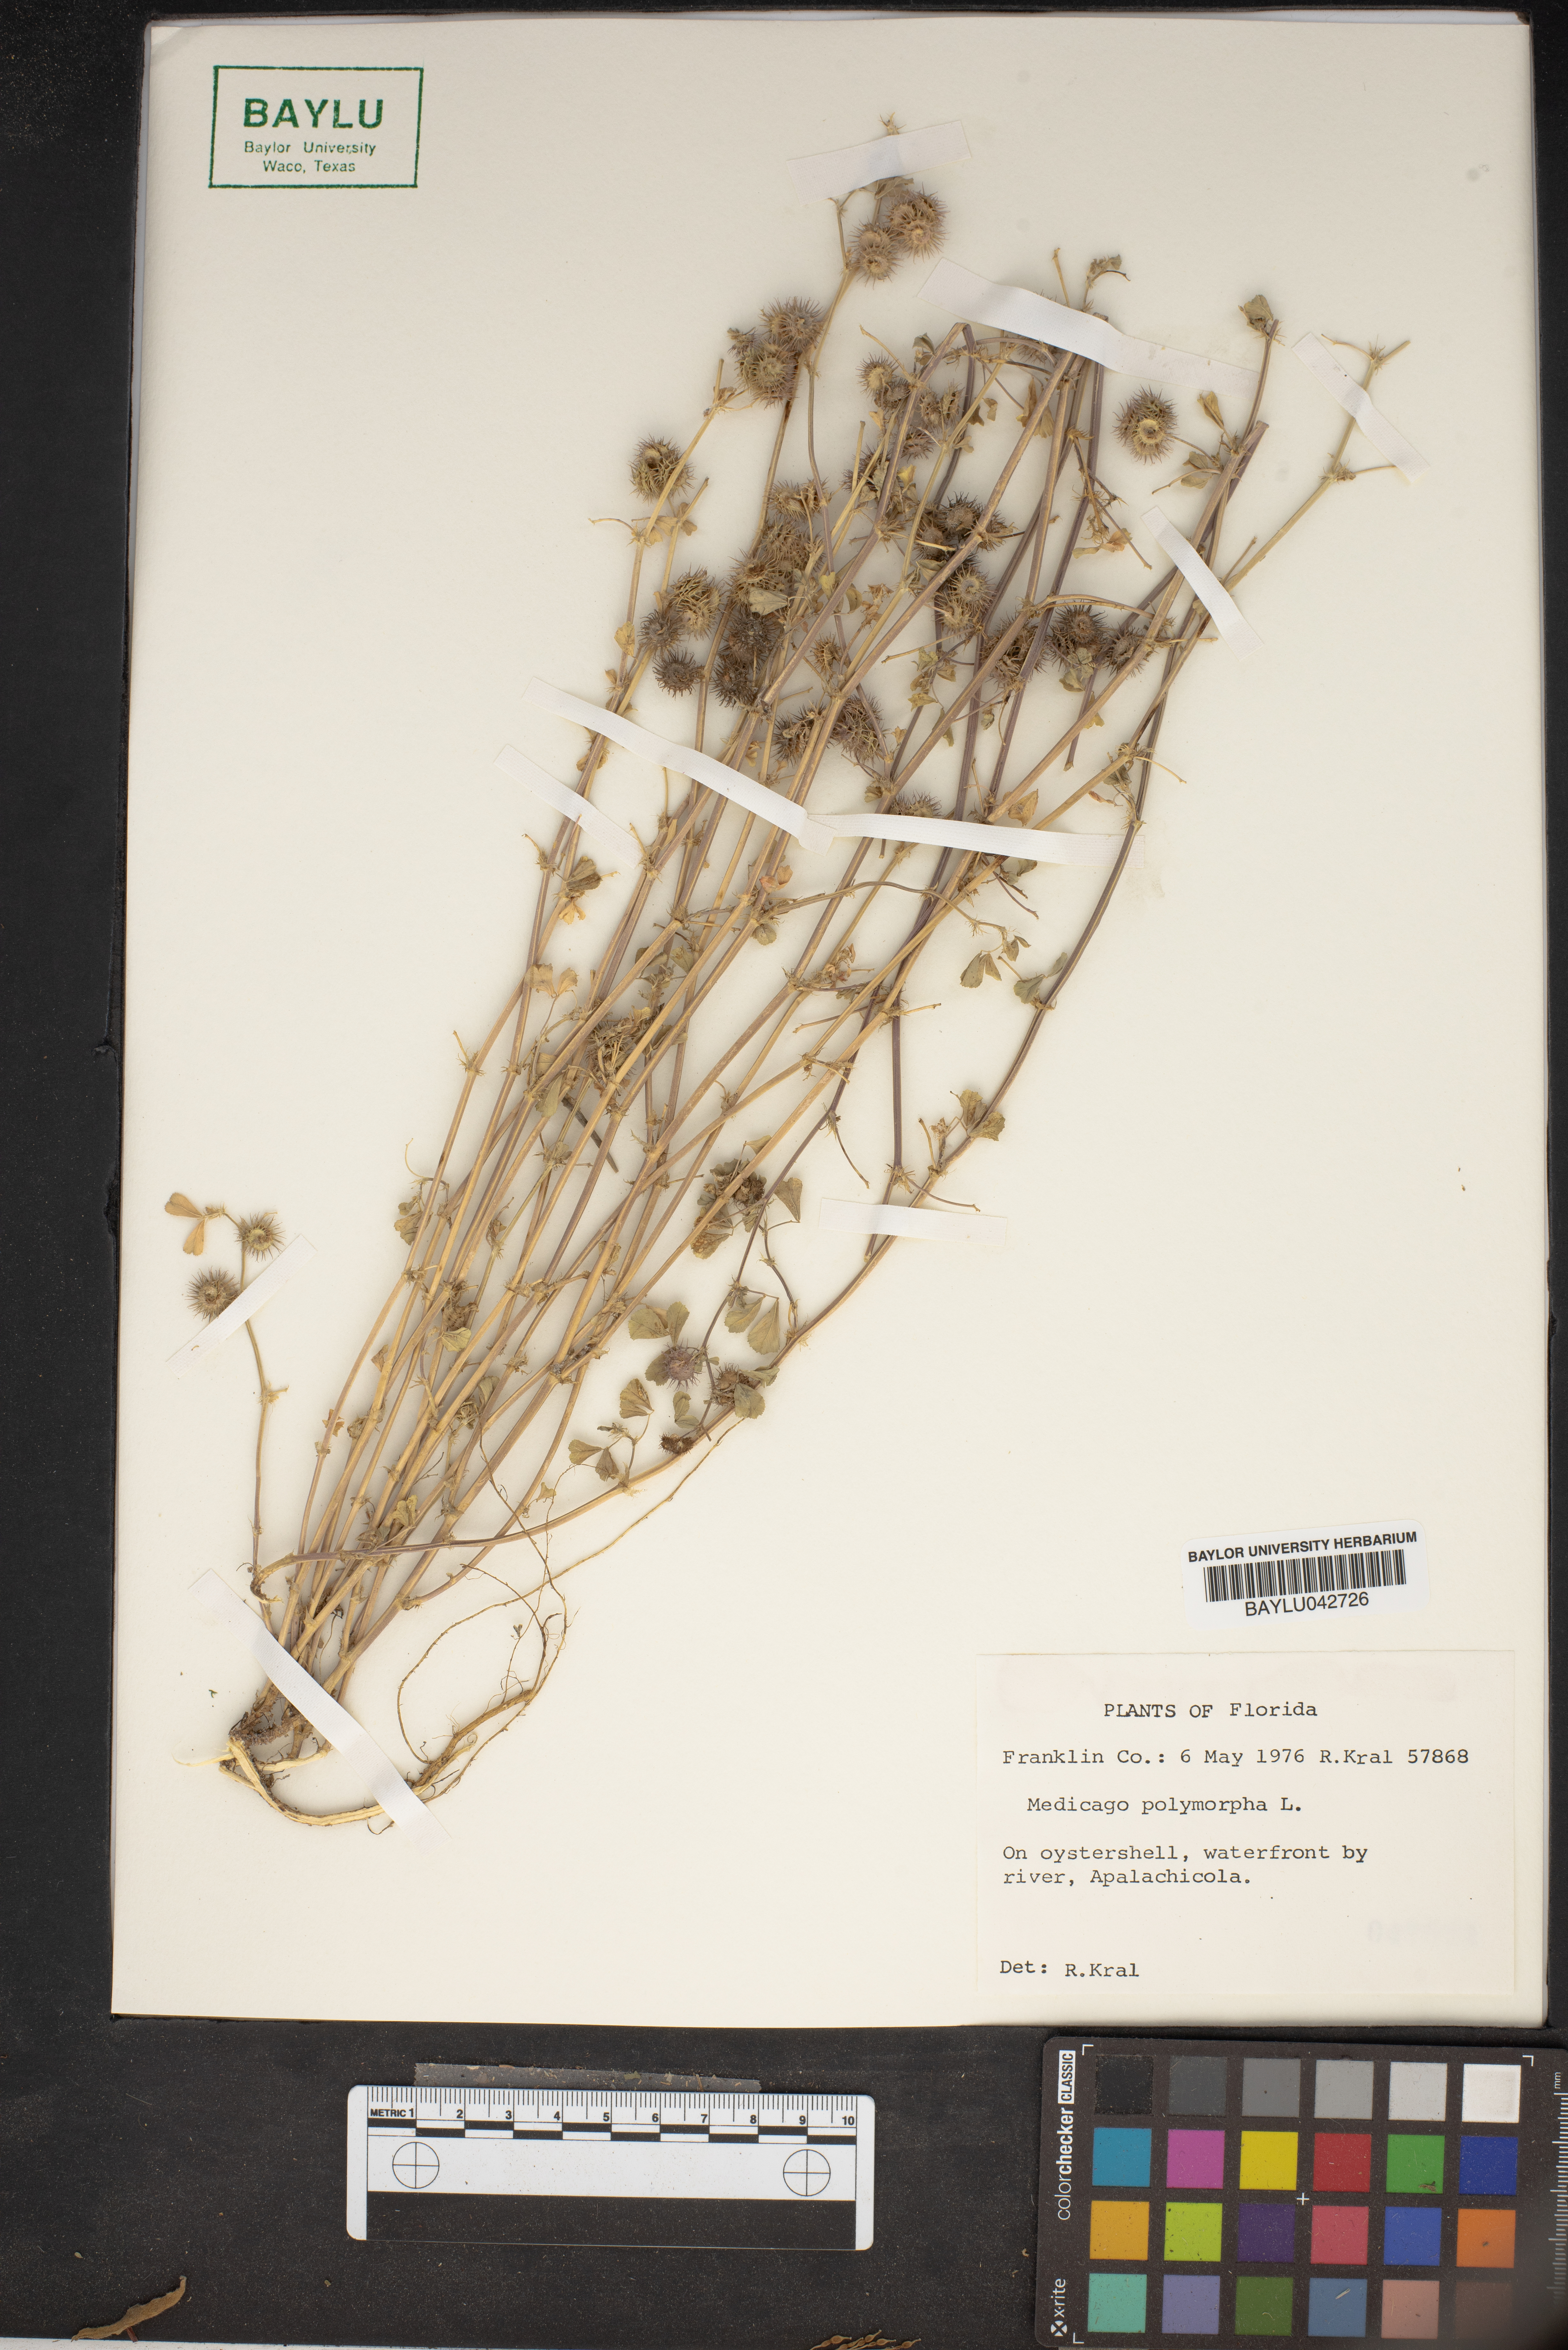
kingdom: Plantae
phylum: Tracheophyta
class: Magnoliopsida
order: Fabales
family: Fabaceae
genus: Medicago
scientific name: Medicago polymorpha
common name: Burclover
